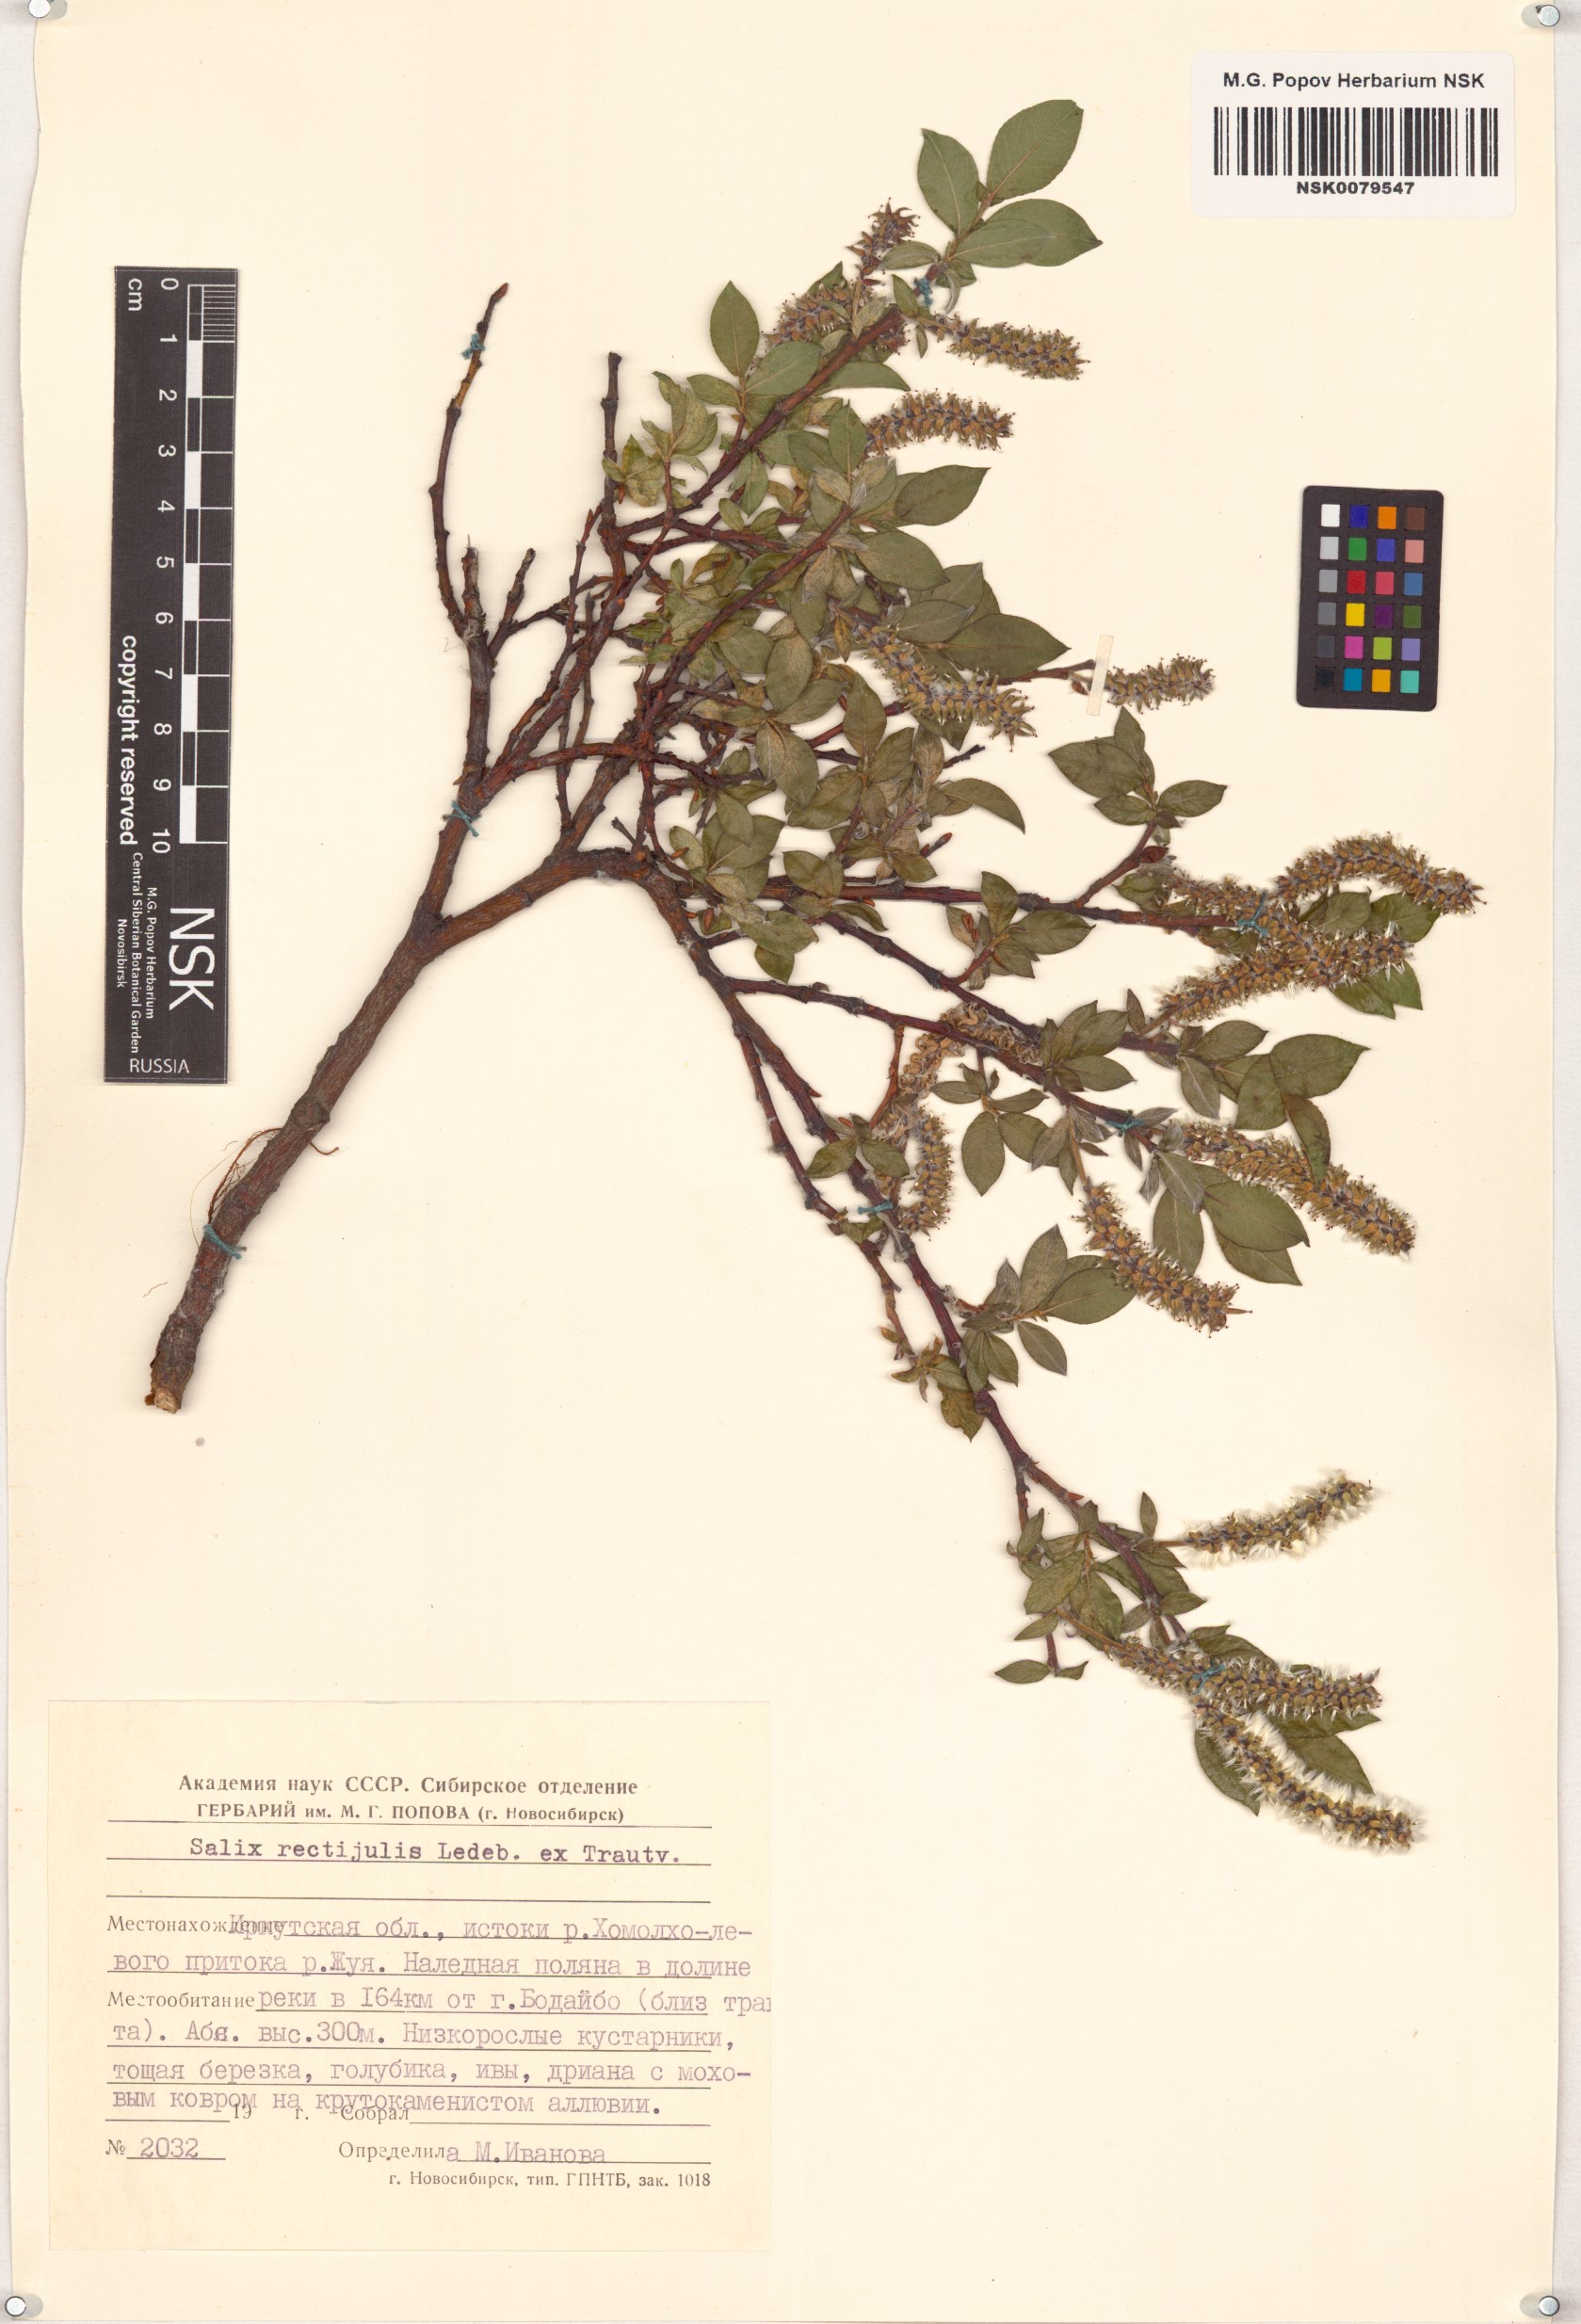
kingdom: Plantae
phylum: Tracheophyta
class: Magnoliopsida
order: Malpighiales
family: Salicaceae
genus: Salix
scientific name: Salix rectijulis
